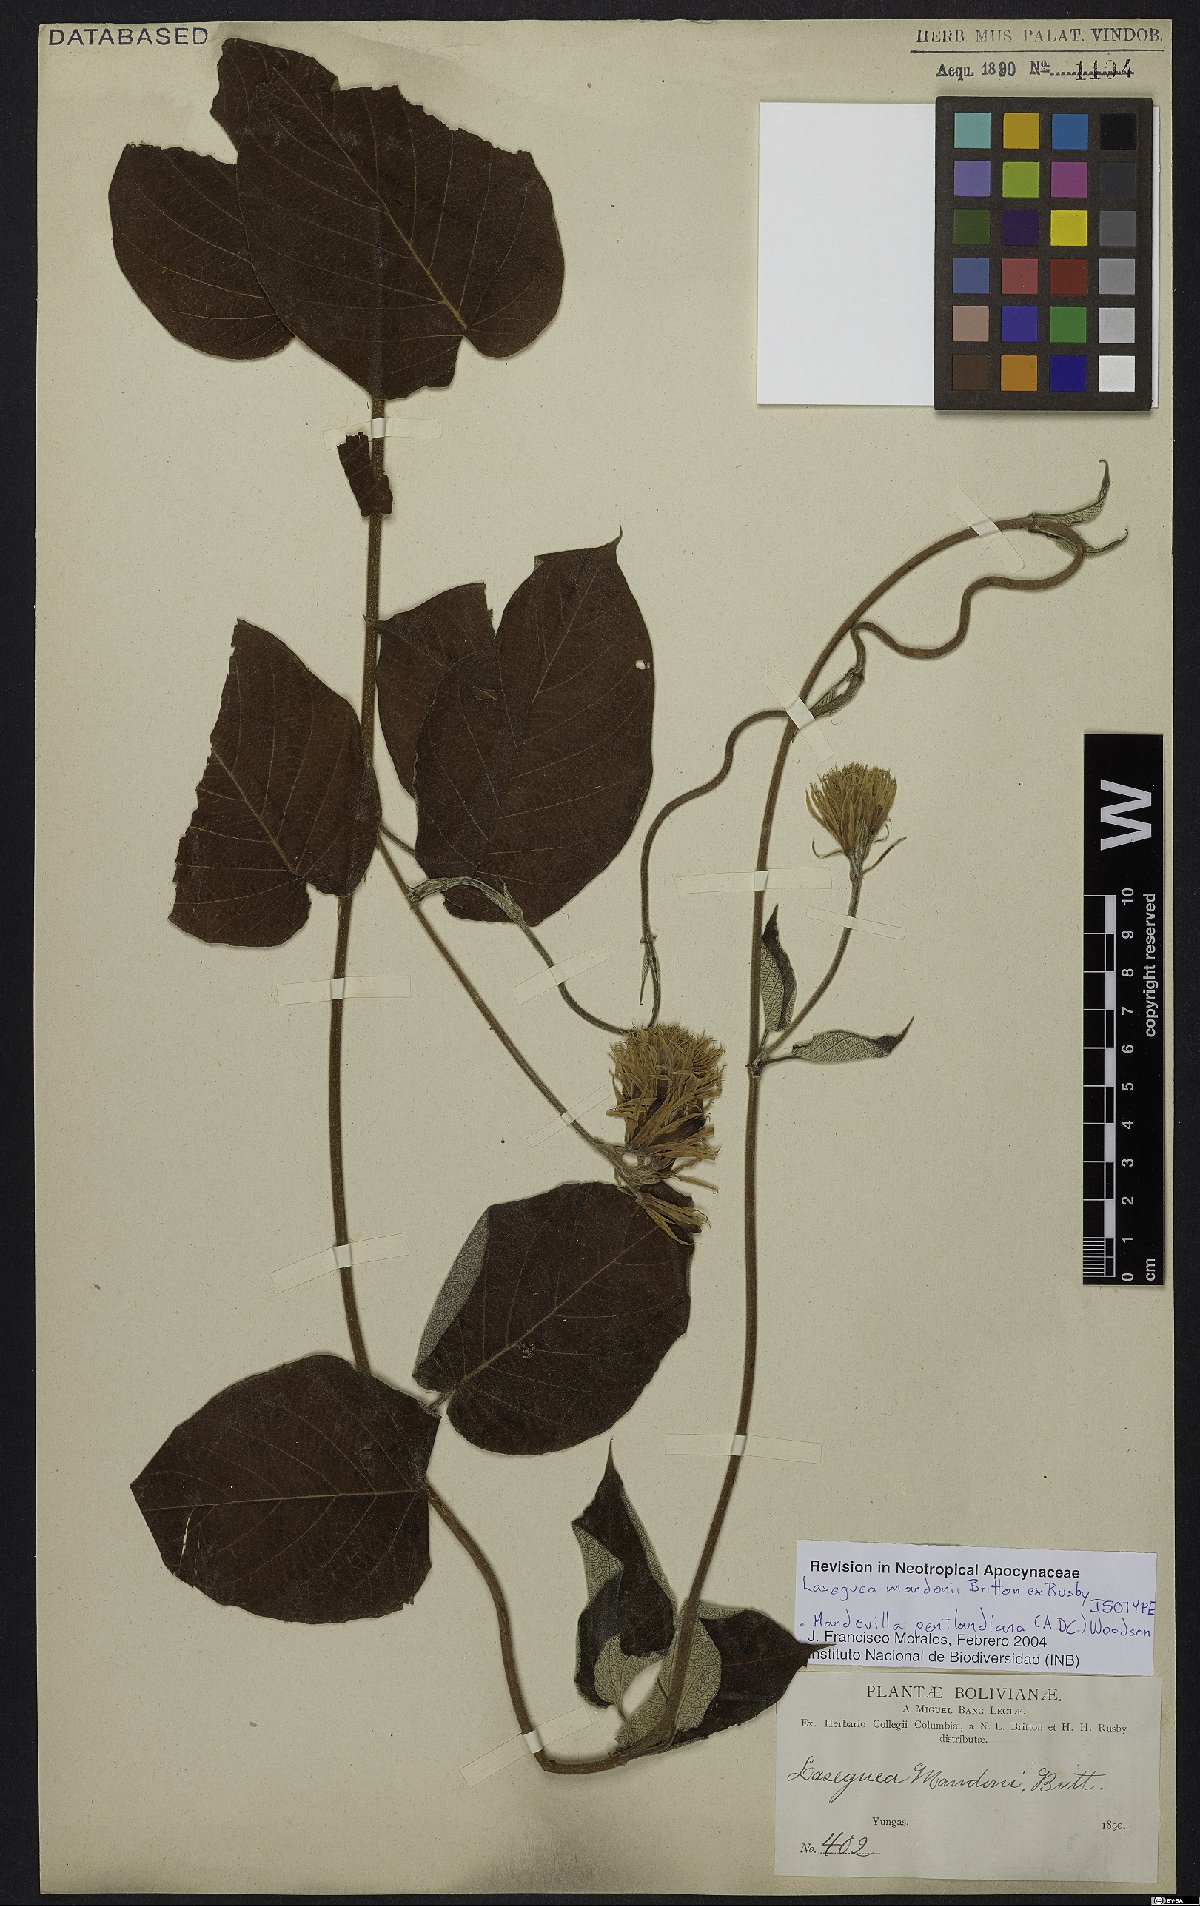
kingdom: Plantae
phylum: Tracheophyta
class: Magnoliopsida
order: Gentianales
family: Apocynaceae
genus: Mandevilla
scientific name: Mandevilla pentlandiana
